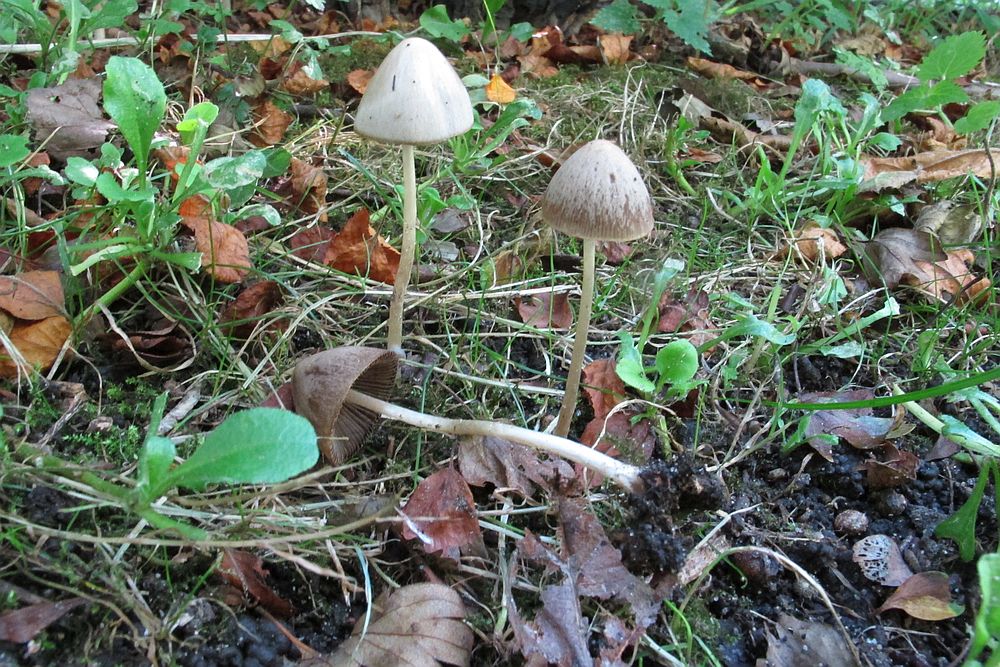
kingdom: Fungi
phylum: Basidiomycota
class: Agaricomycetes
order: Agaricales
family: Psathyrellaceae
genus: Psathyrella
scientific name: Psathyrella prona
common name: vej-mørkhat
